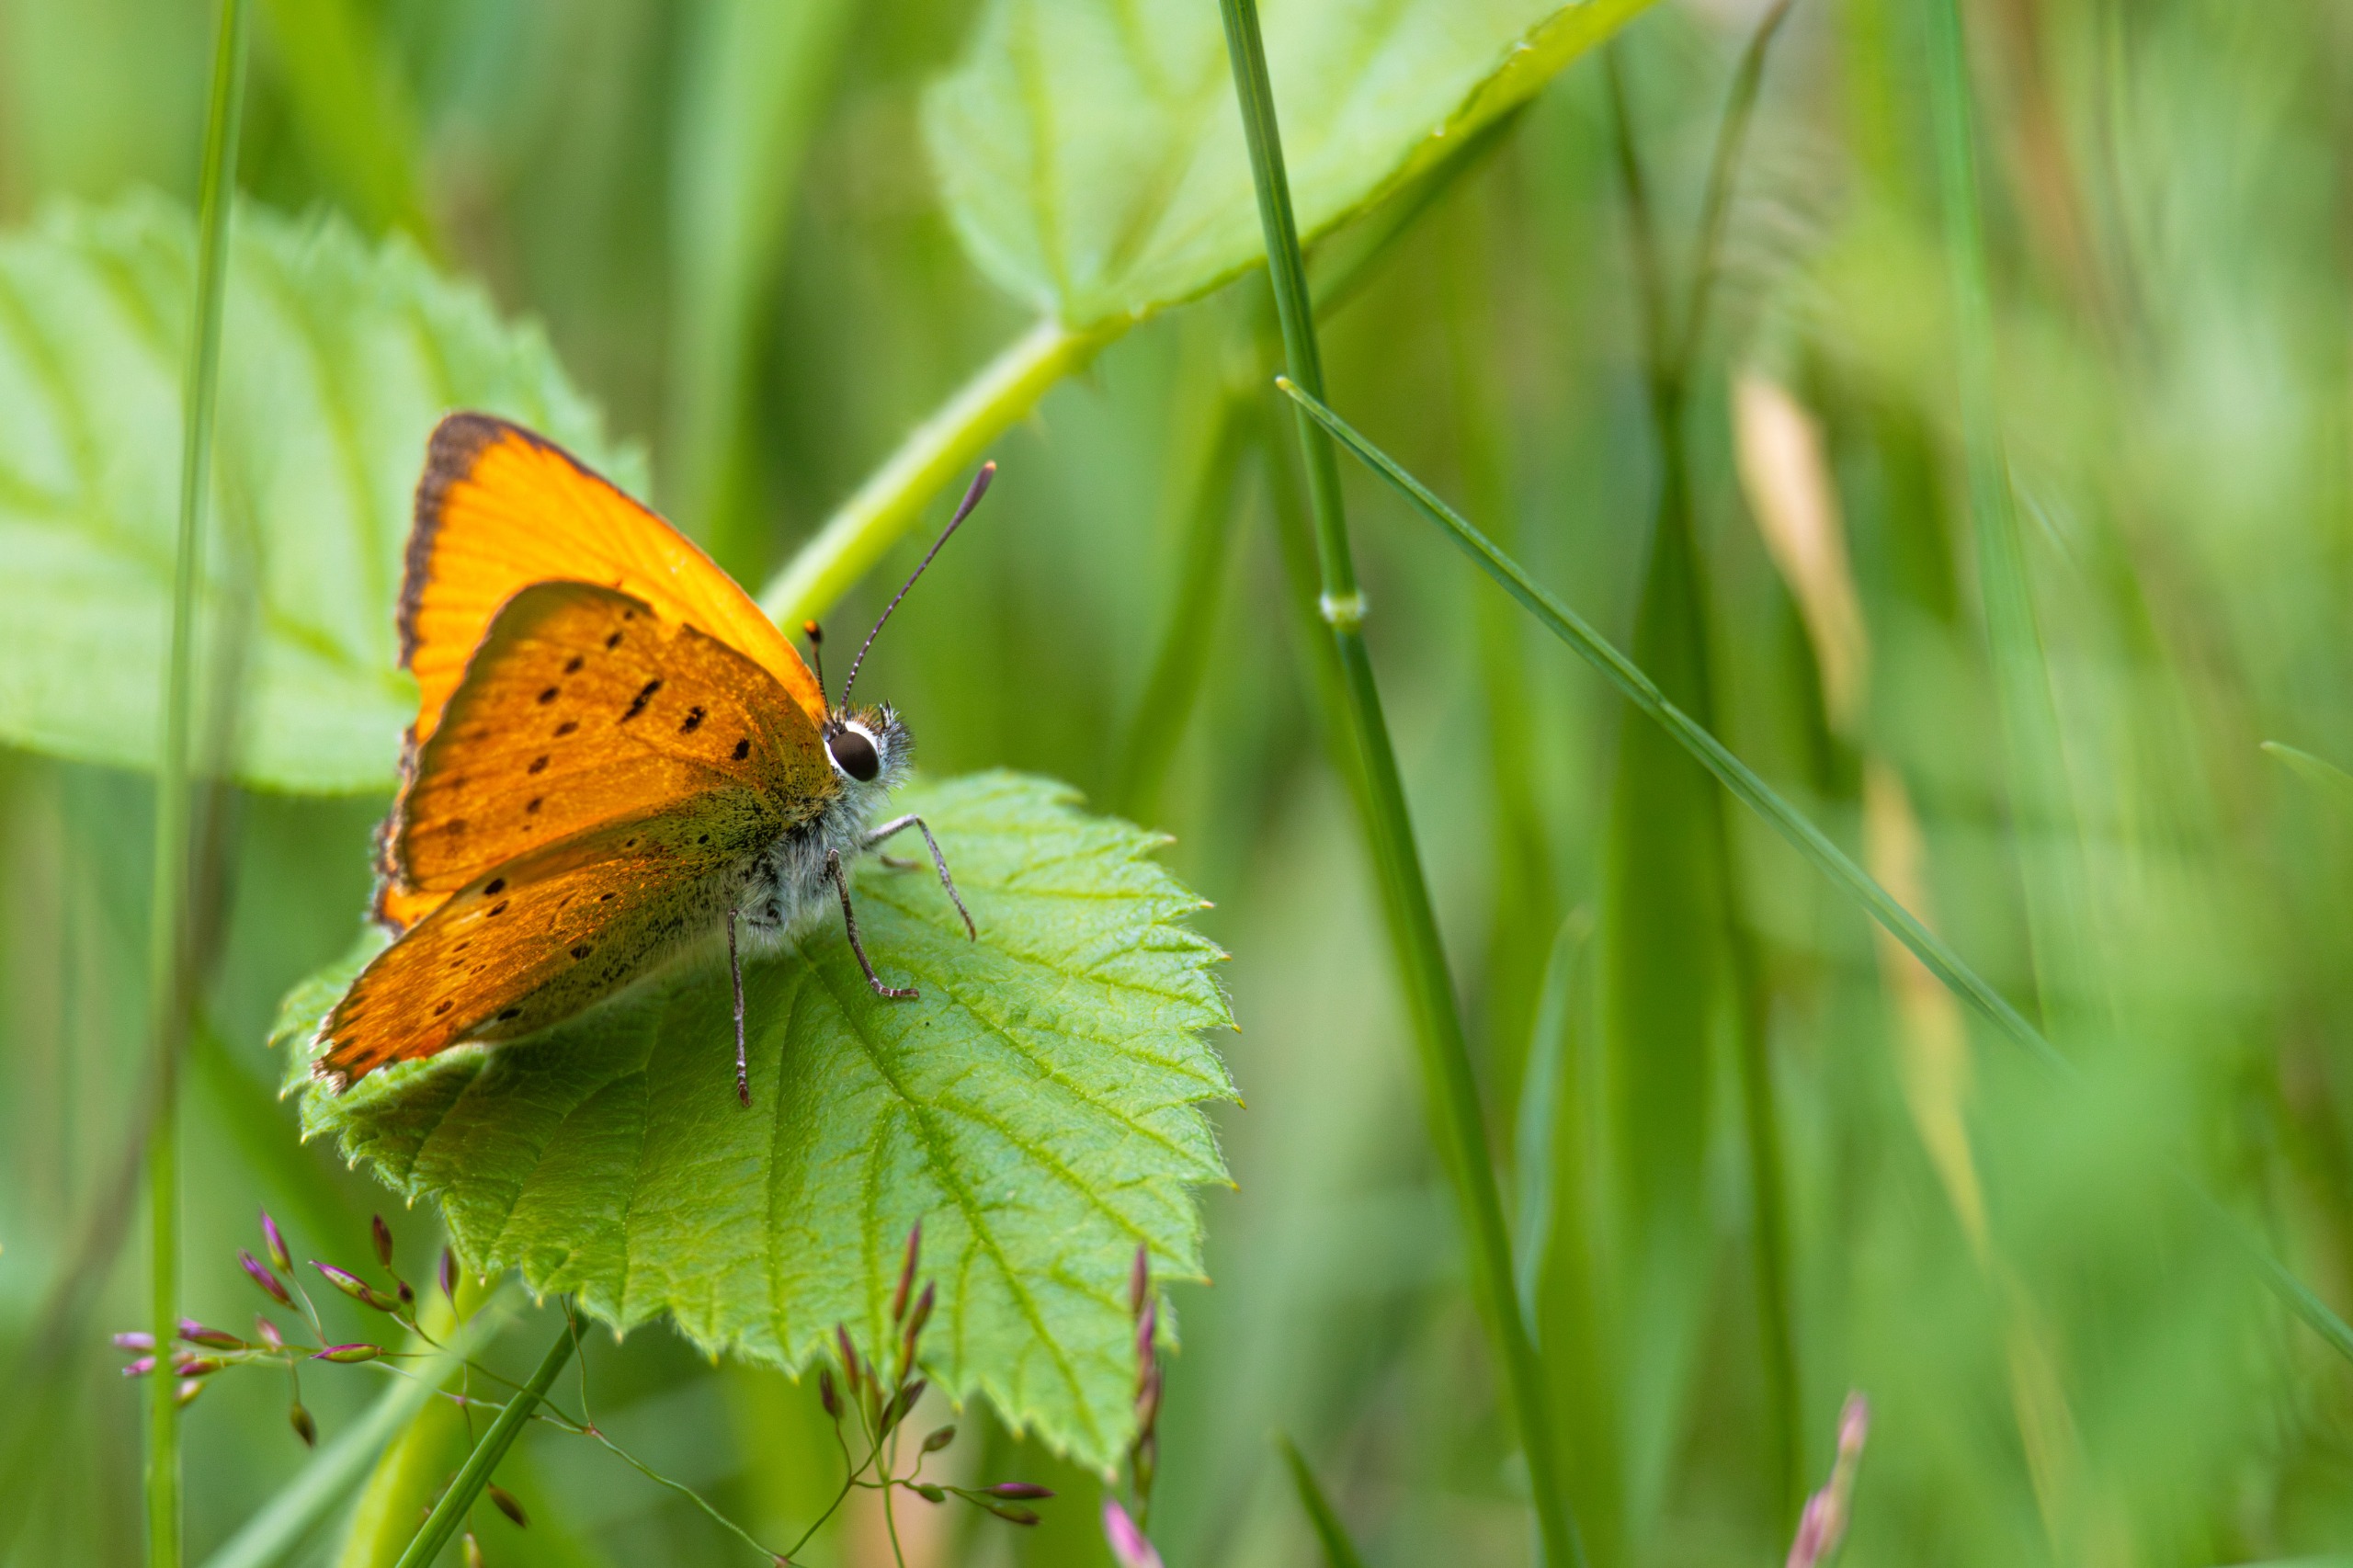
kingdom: Animalia
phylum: Arthropoda
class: Insecta
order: Lepidoptera
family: Lycaenidae
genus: Lycaena
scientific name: Lycaena virgaureae
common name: Dukatsommerfugl
